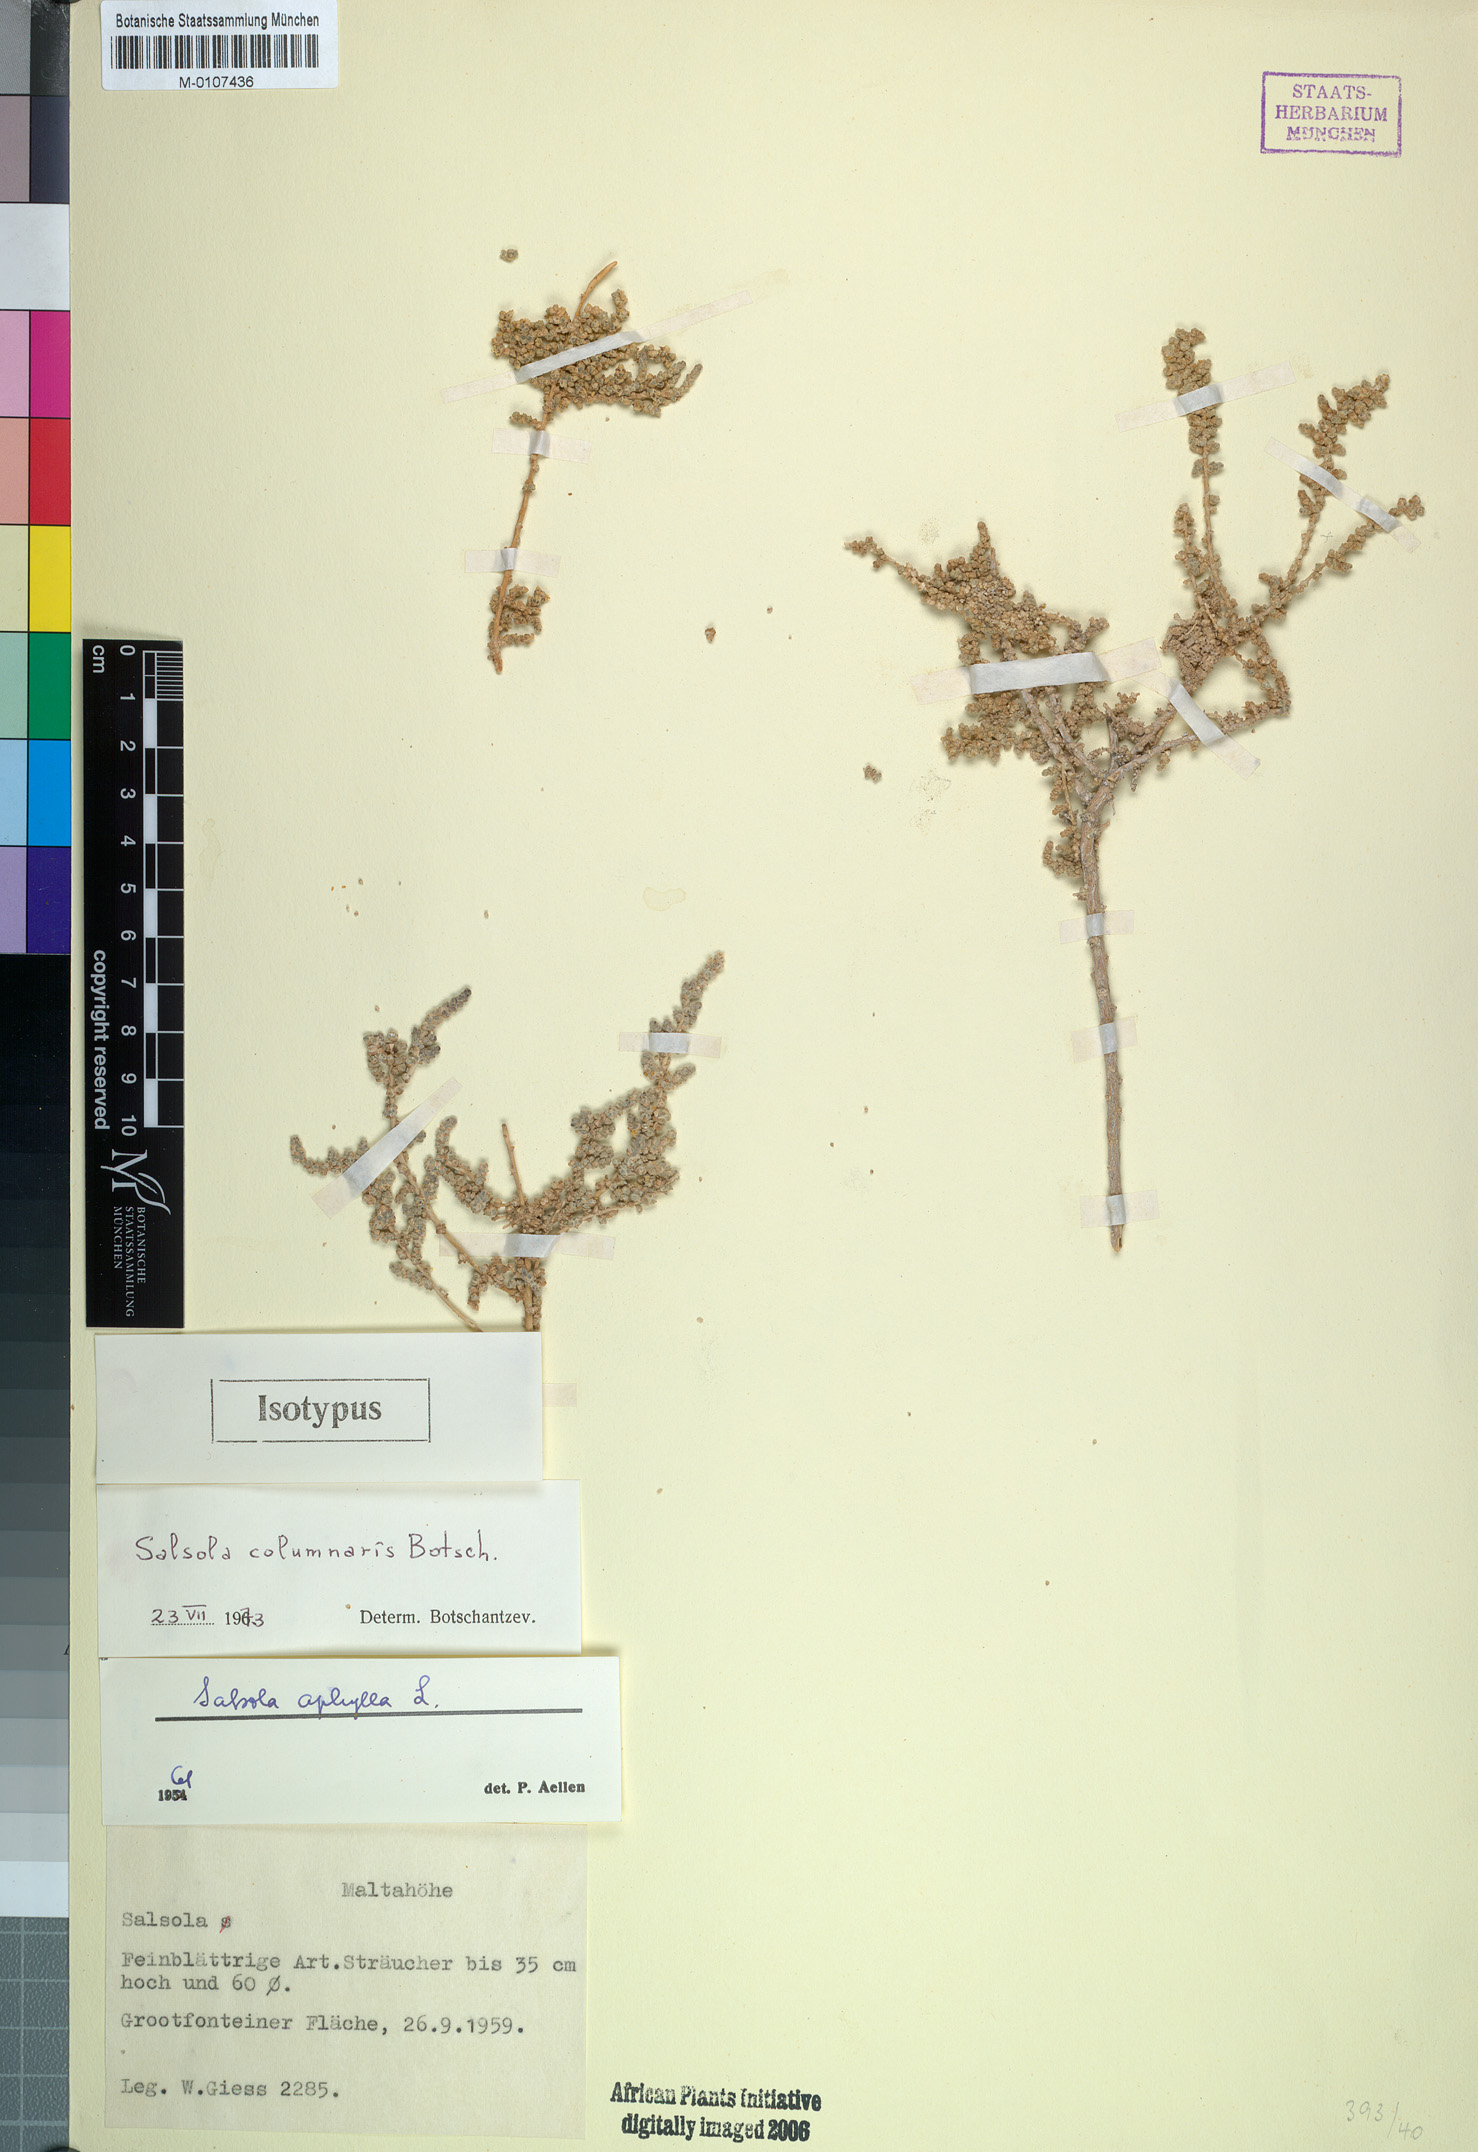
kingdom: Plantae
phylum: Tracheophyta
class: Magnoliopsida
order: Caryophyllales
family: Amaranthaceae
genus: Caroxylon
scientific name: Caroxylon columnare
